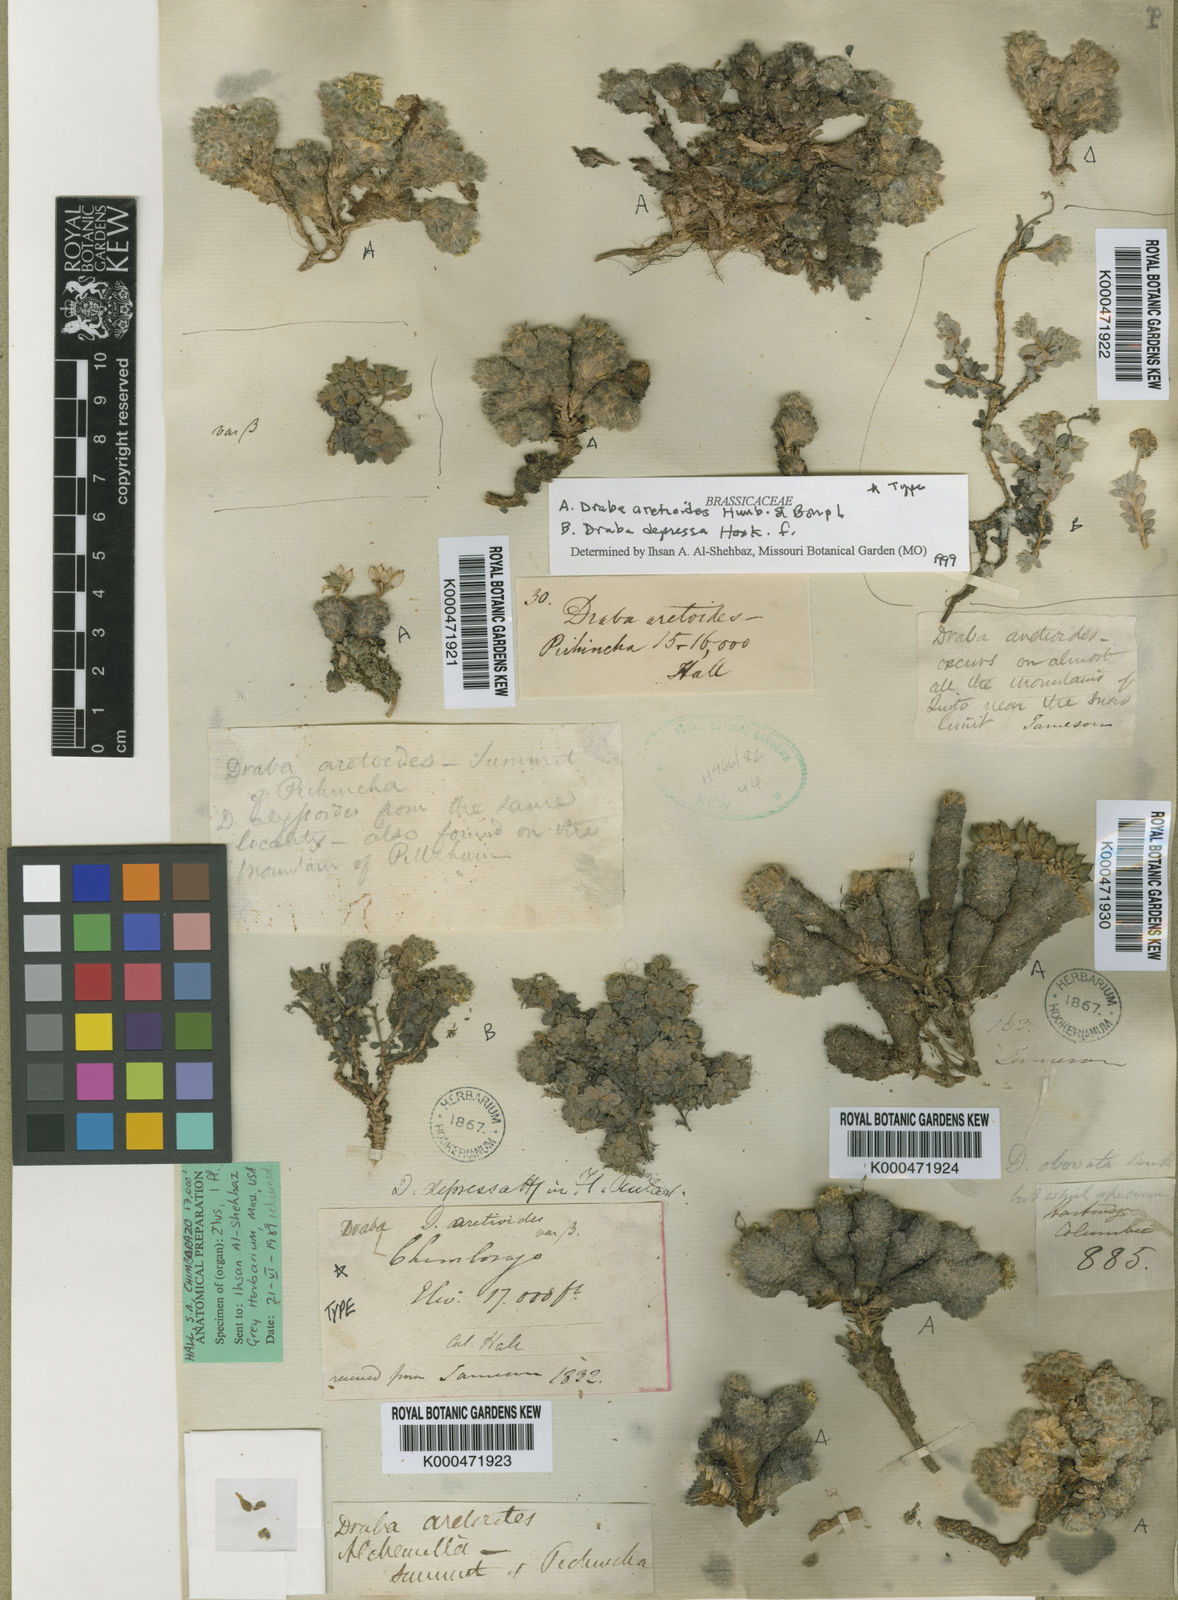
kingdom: Plantae
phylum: Tracheophyta
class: Magnoliopsida
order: Brassicales
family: Brassicaceae
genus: Draba
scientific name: Draba depressa
